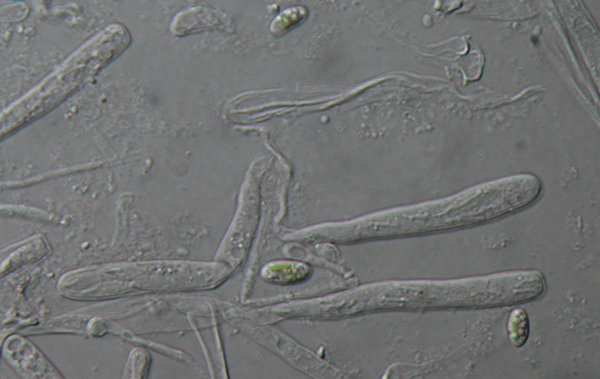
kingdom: Fungi
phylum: Ascomycota
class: Orbiliomycetes
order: Orbiliales
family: Orbiliaceae
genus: Orbilia
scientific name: Orbilia luteorubella
